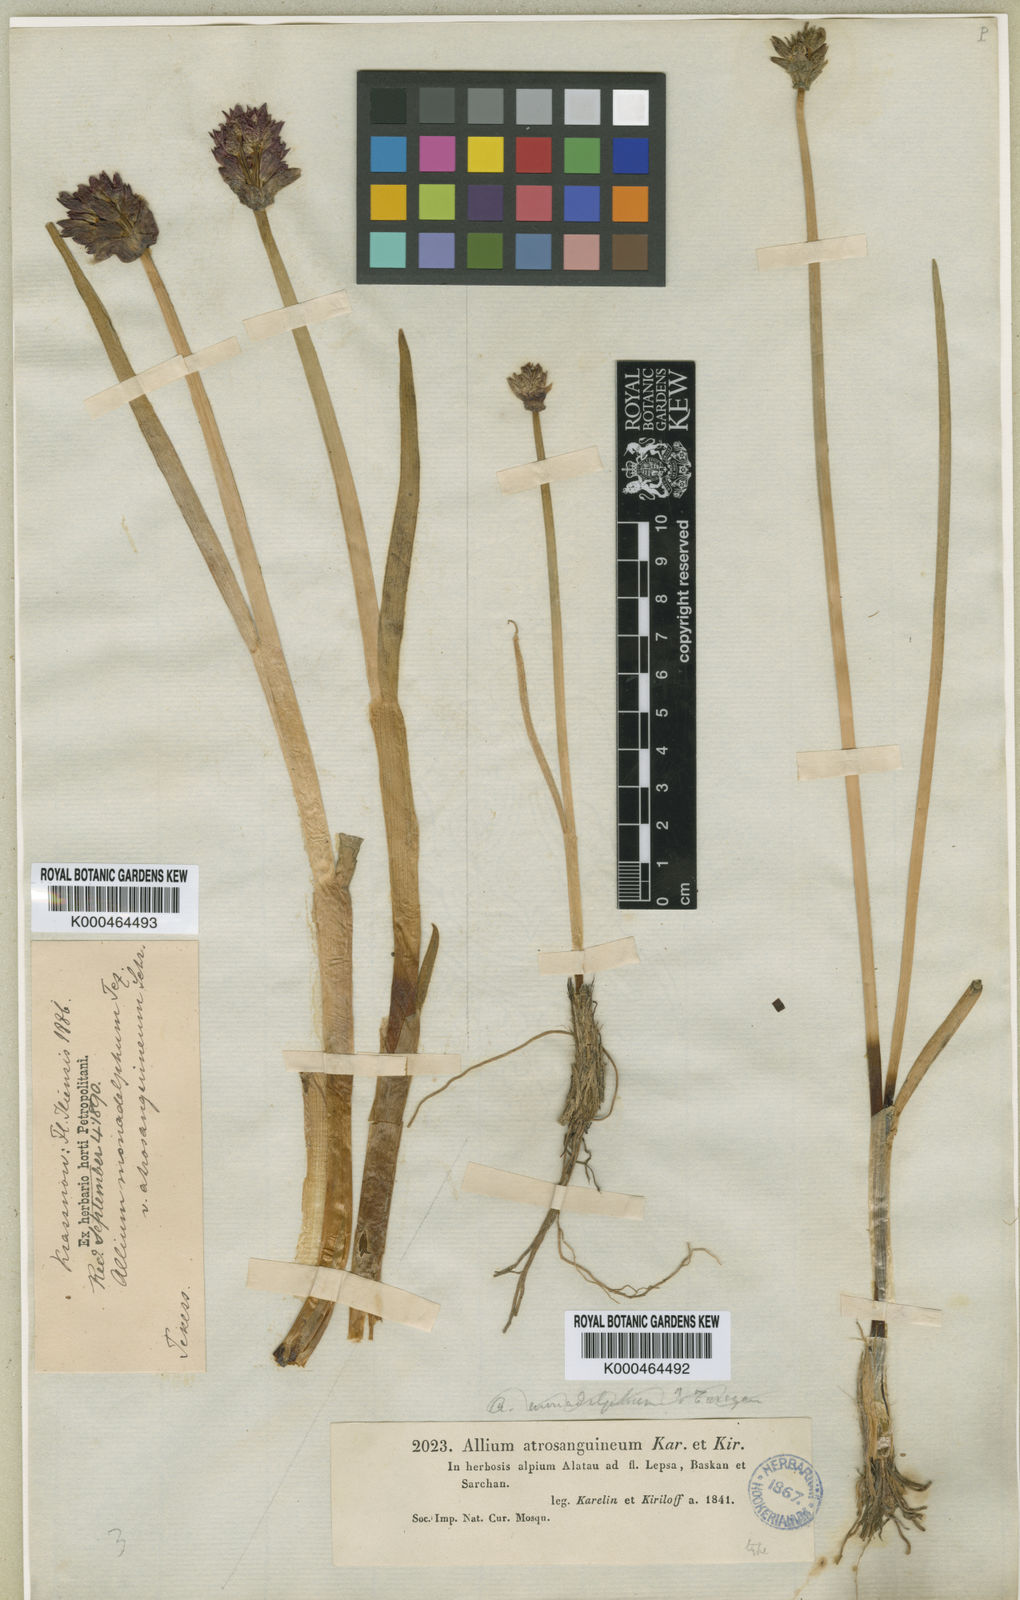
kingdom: Plantae
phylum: Tracheophyta
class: Liliopsida
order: Asparagales
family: Amaryllidaceae
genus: Allium
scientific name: Allium atrosanguineum
